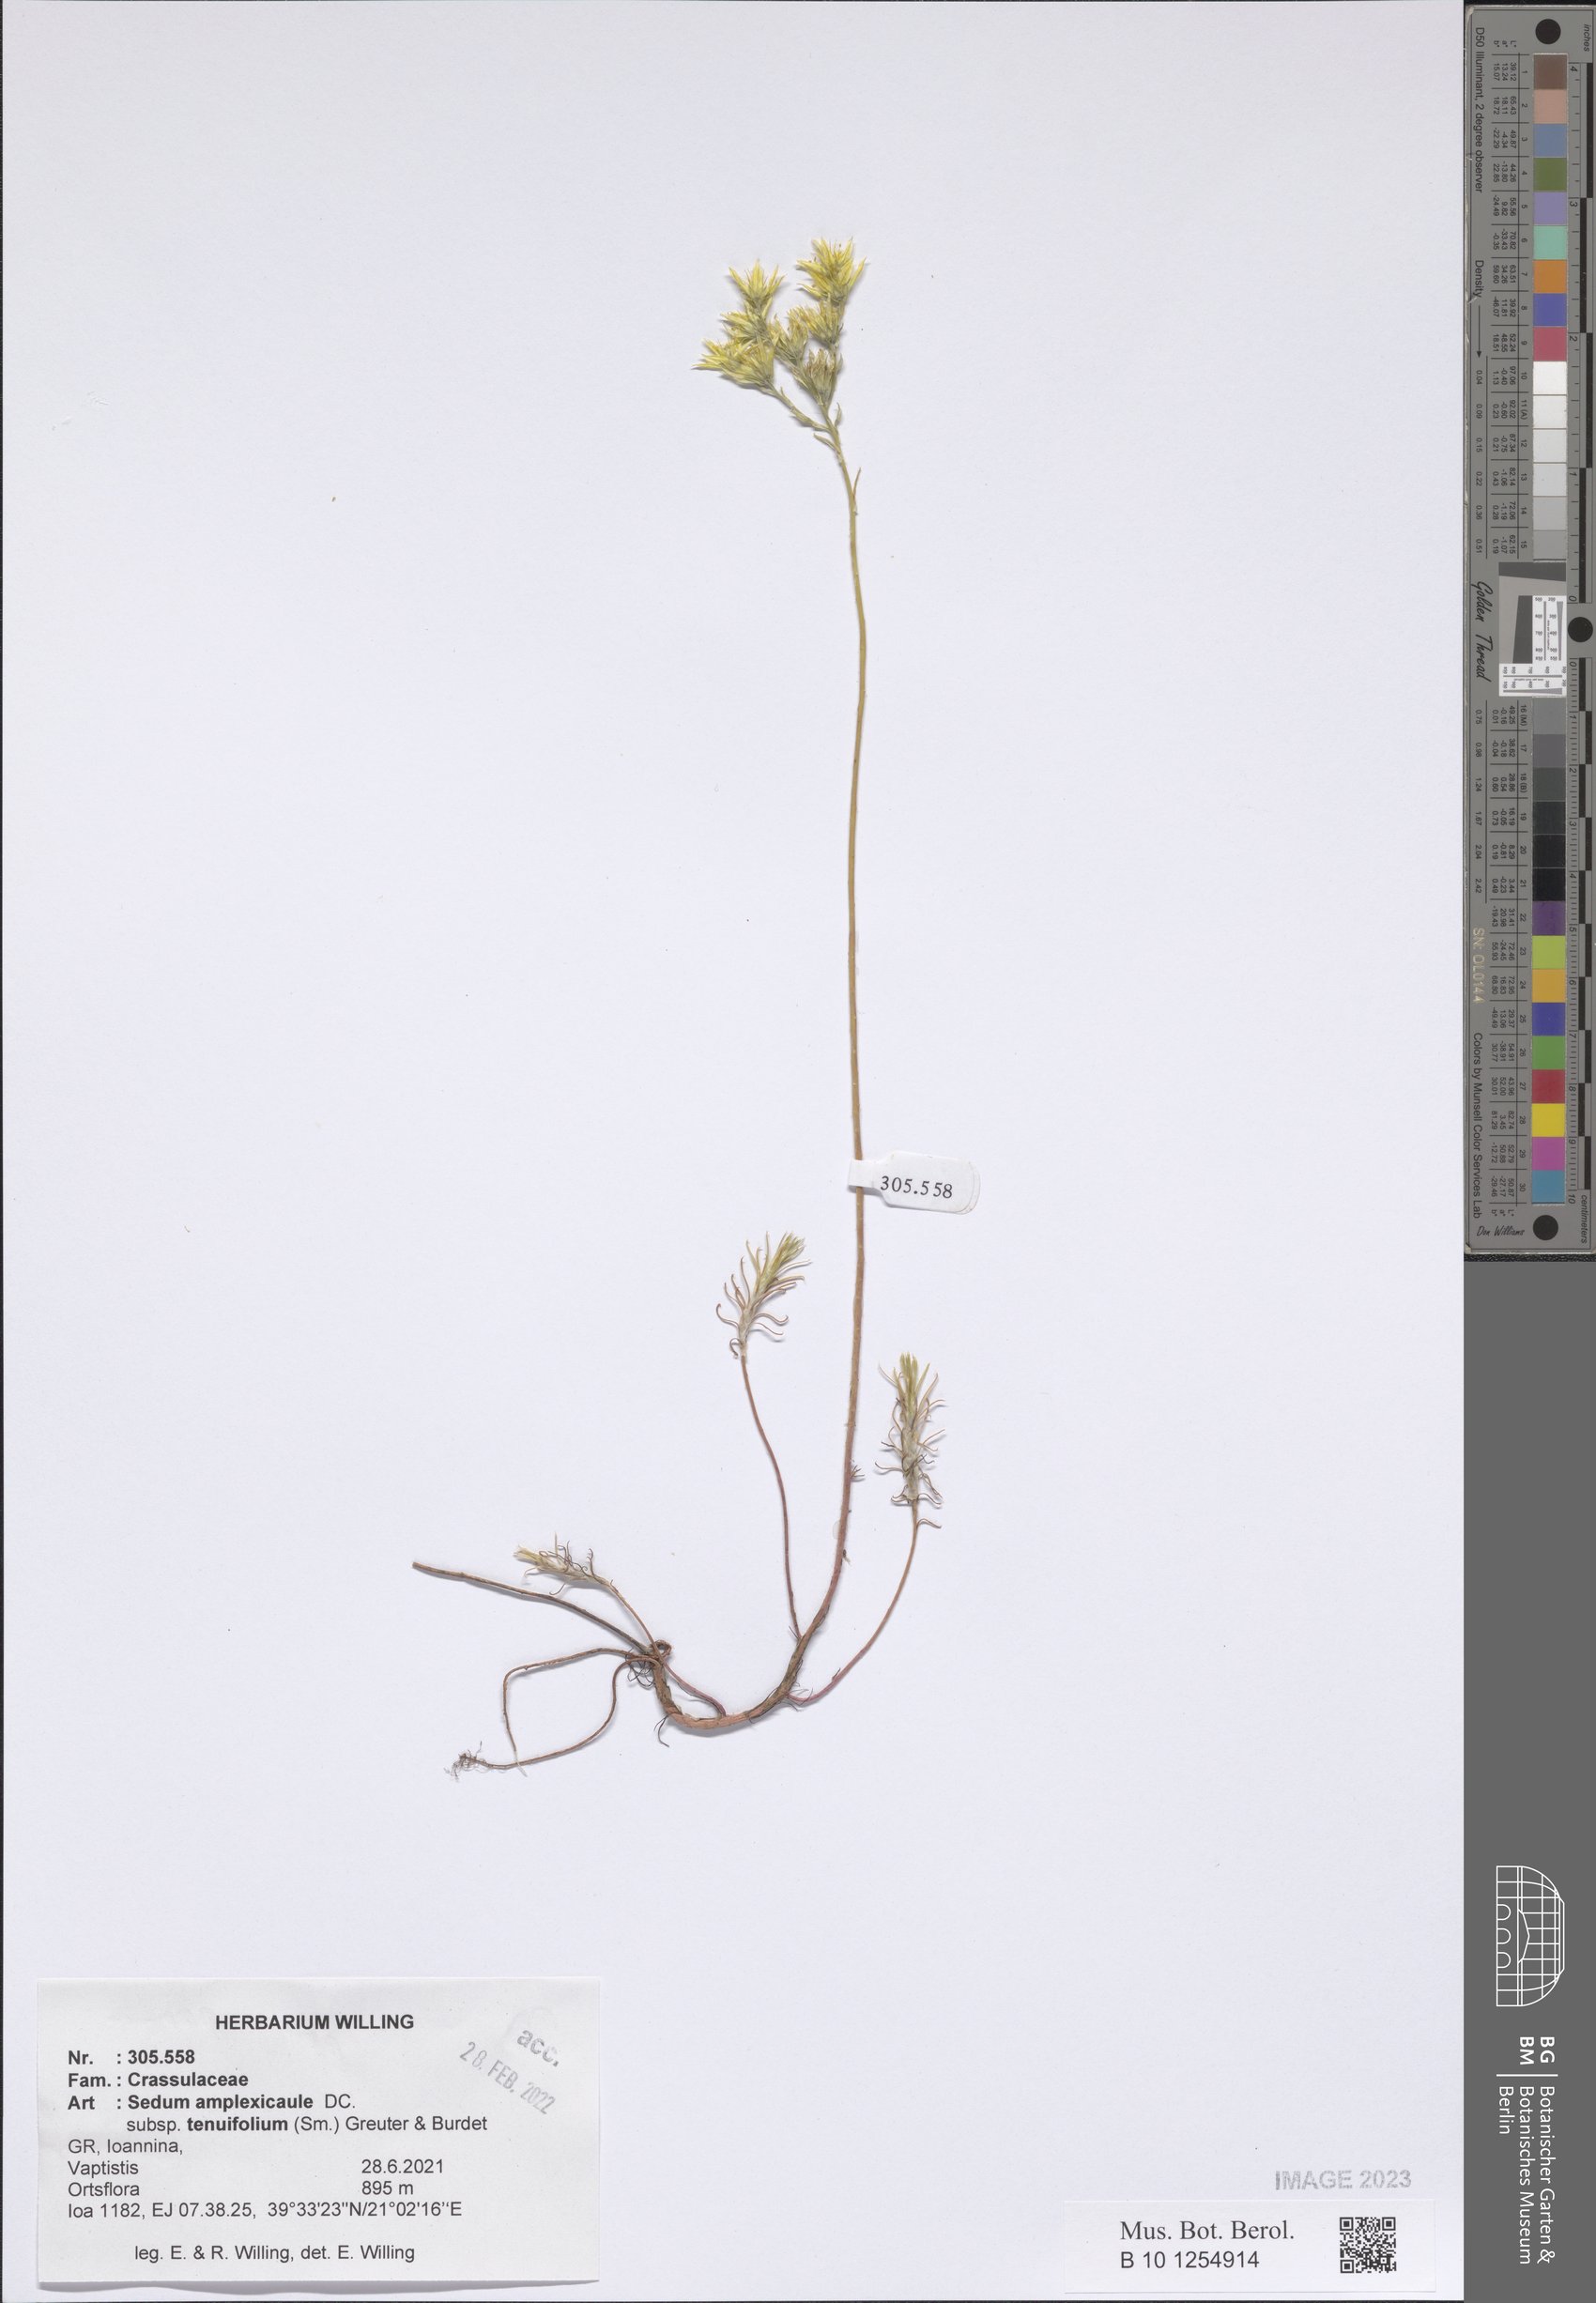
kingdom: Plantae
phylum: Tracheophyta
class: Magnoliopsida
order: Saxifragales
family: Crassulaceae
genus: Petrosedum
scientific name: Petrosedum tenuifolium
